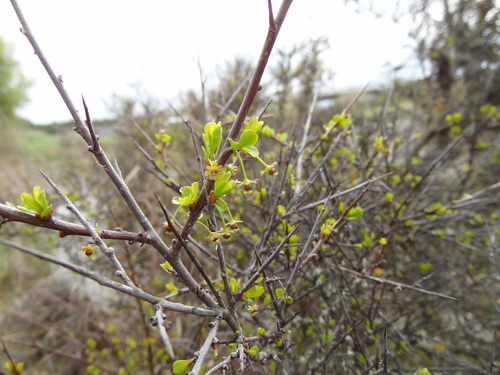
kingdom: Plantae
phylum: Tracheophyta
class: Magnoliopsida
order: Malpighiales
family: Phyllanthaceae
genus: Flueggea
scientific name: Flueggea tinctoria
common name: Tamujo
